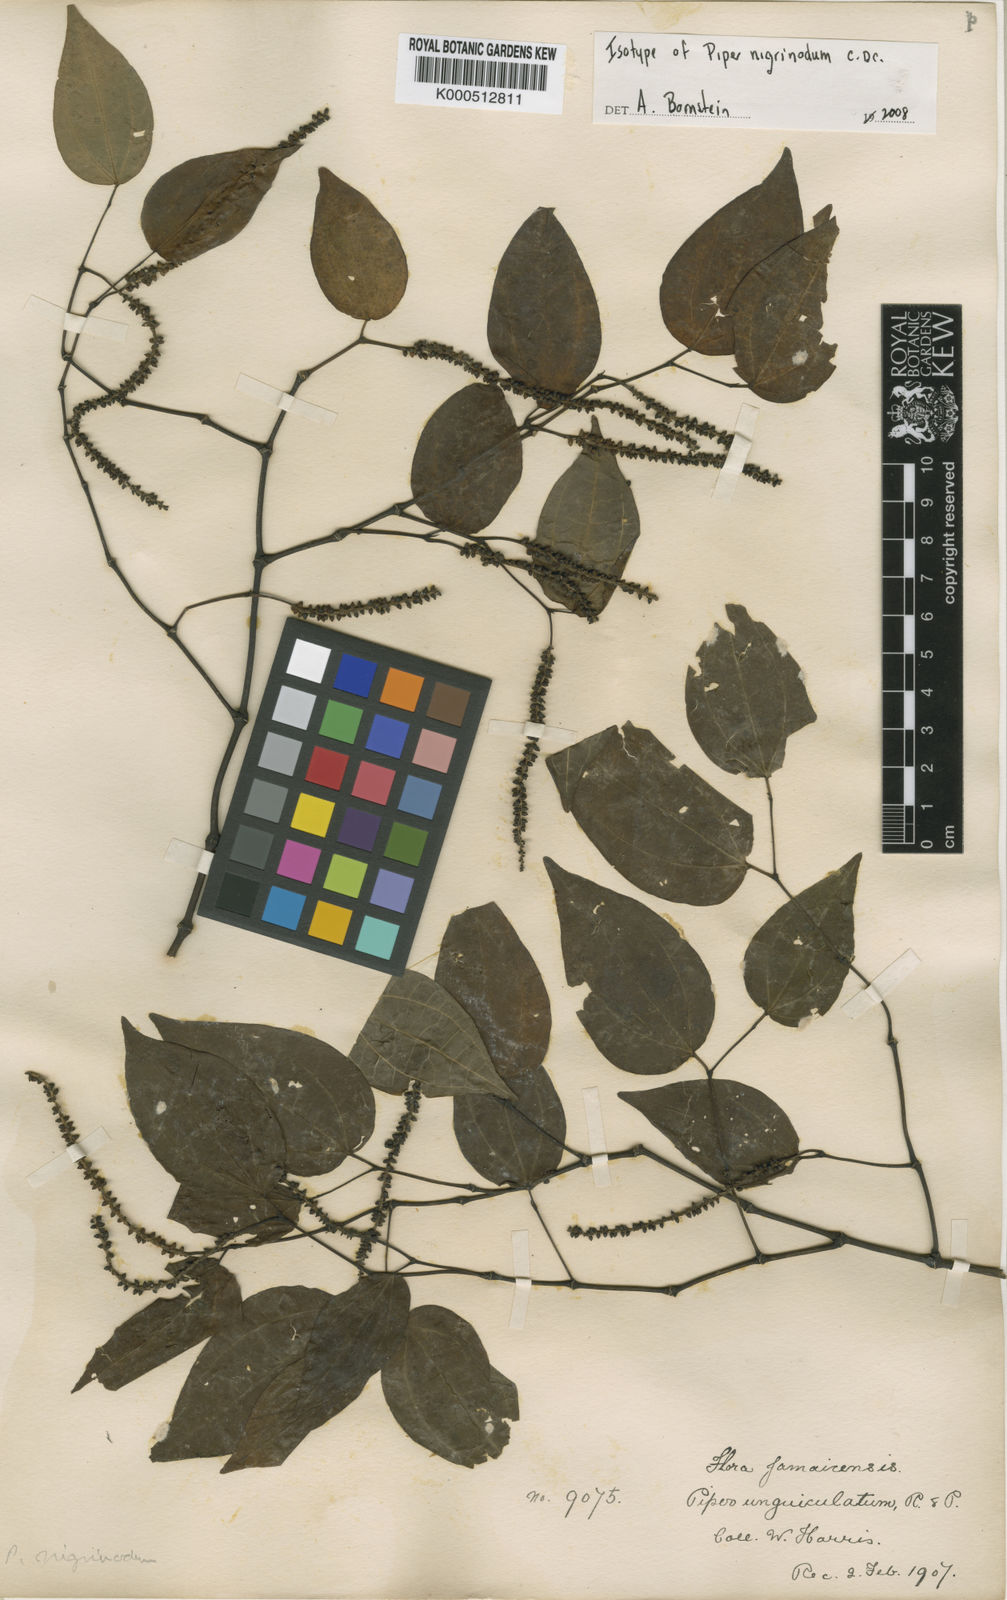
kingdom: Plantae
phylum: Tracheophyta
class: Magnoliopsida
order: Piperales
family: Piperaceae
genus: Piper
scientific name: Piper amalago
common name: Pepper-elder
